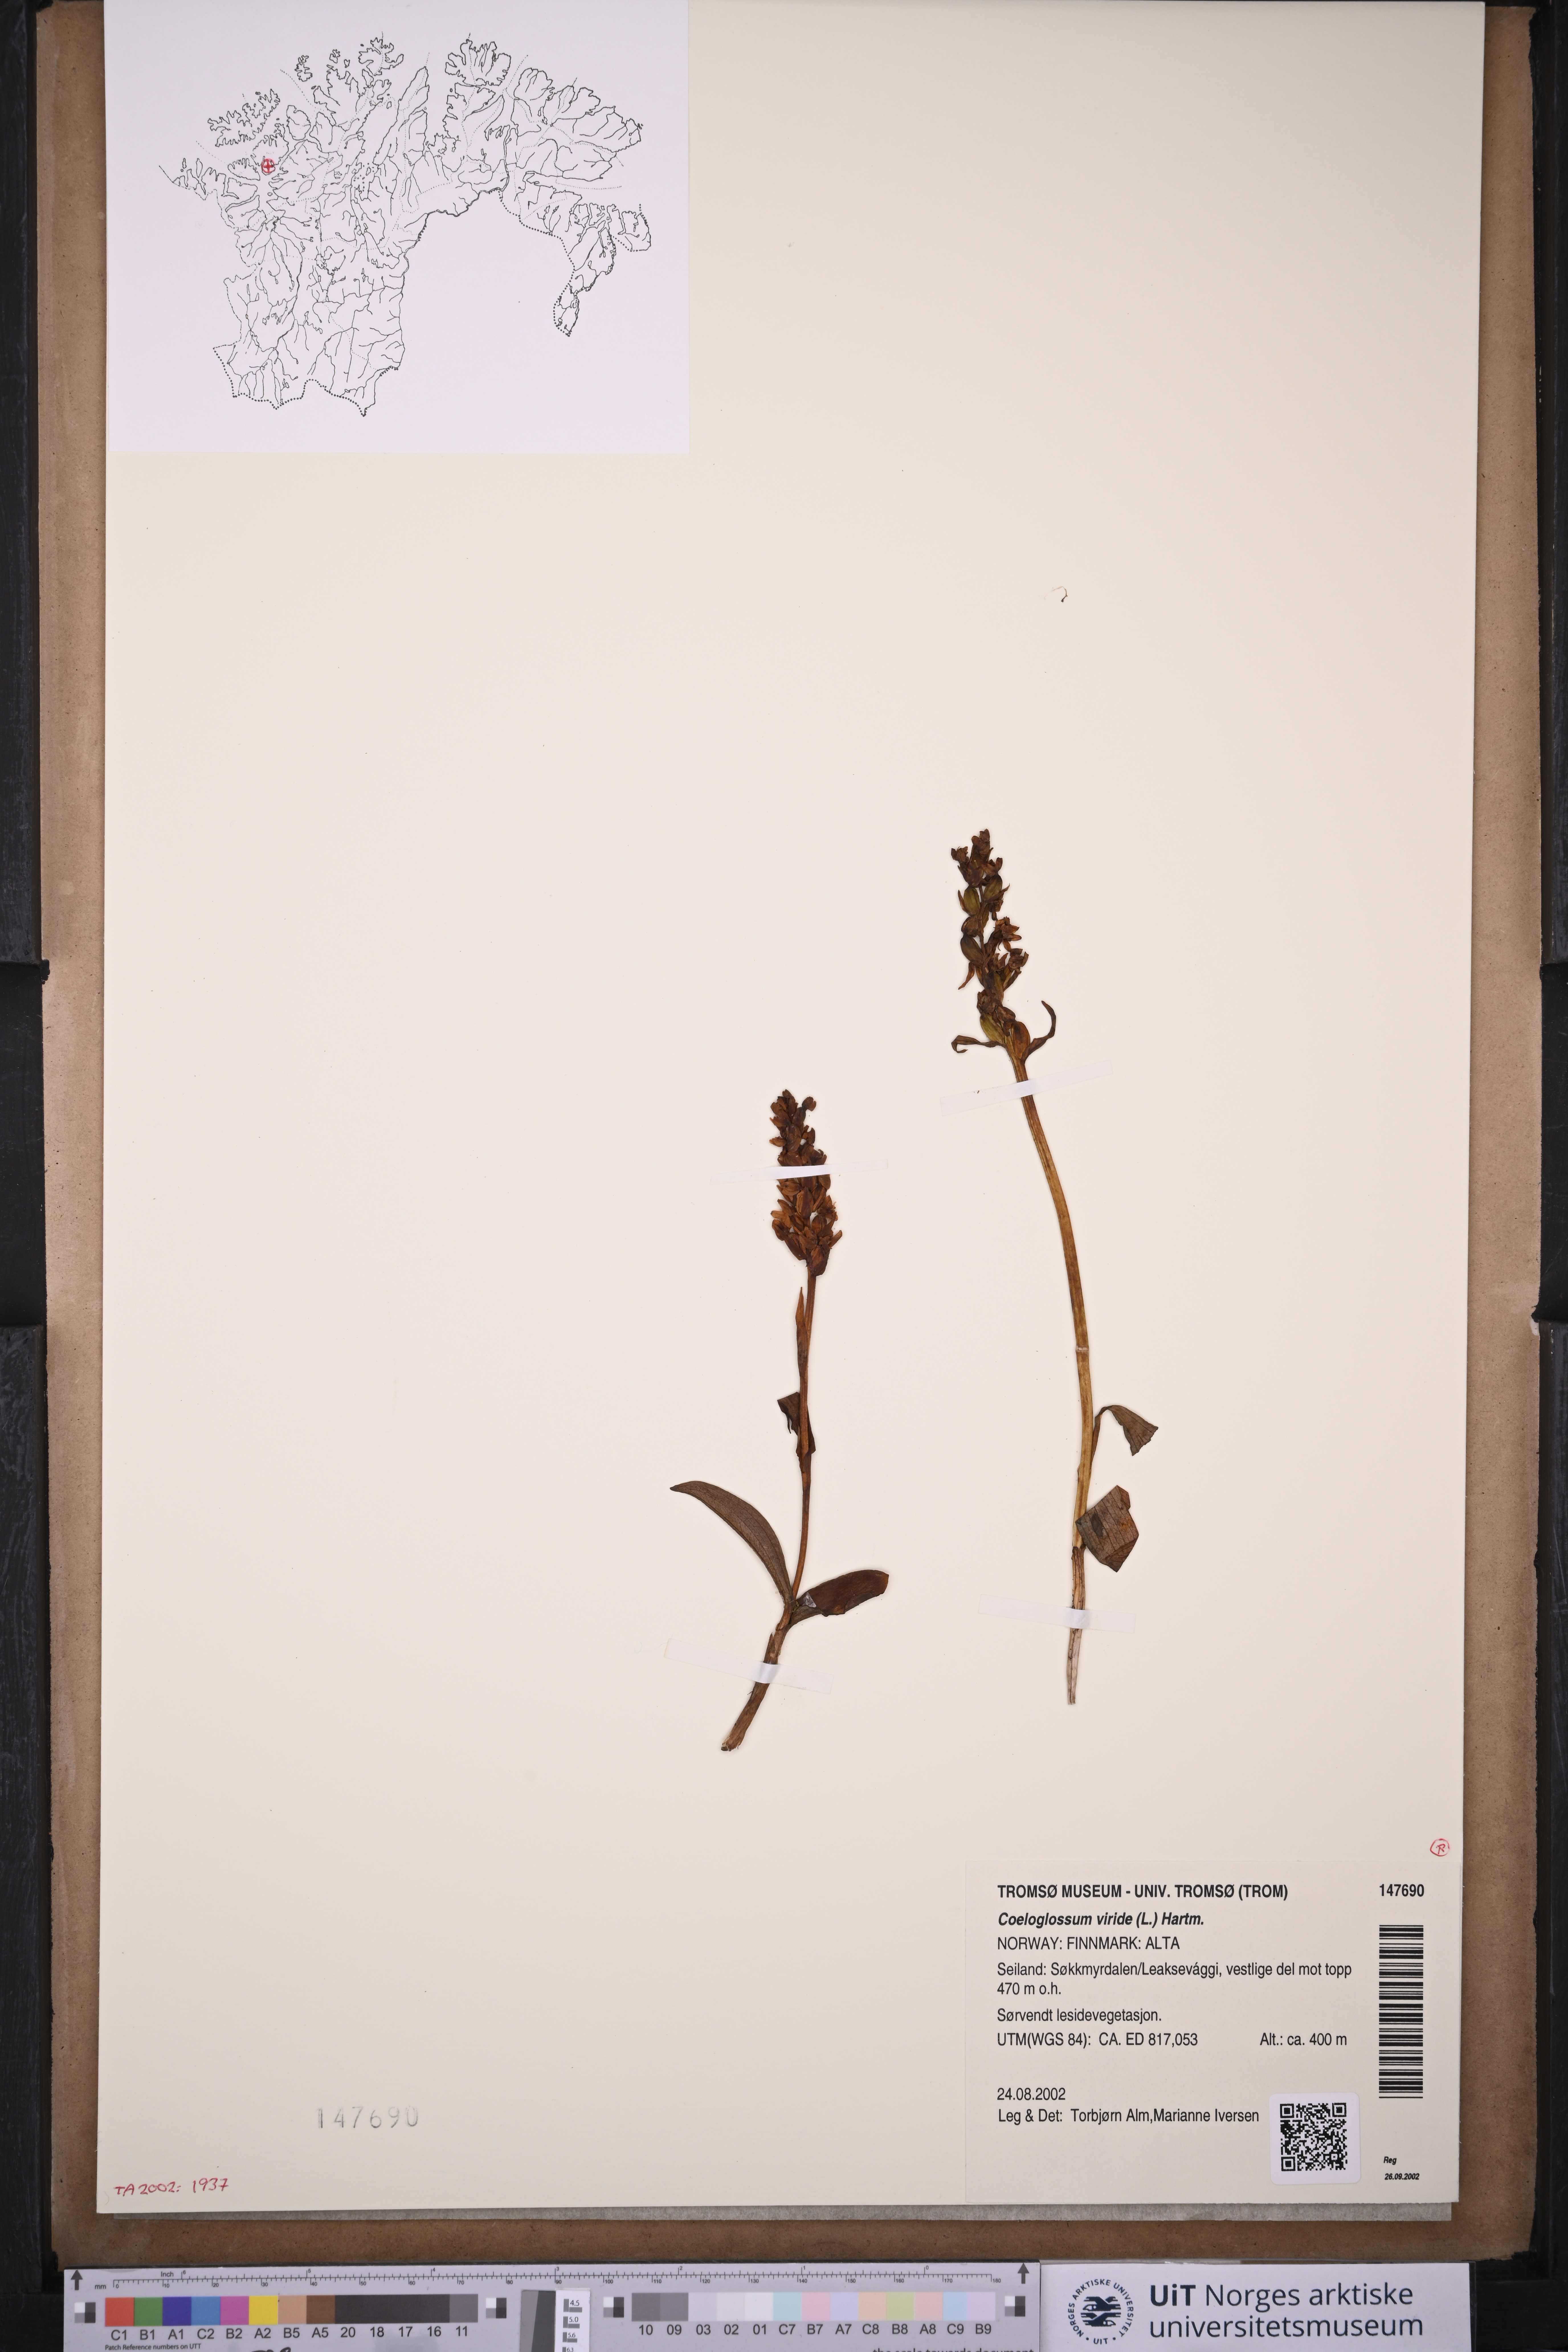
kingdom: Plantae
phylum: Tracheophyta
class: Liliopsida
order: Asparagales
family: Orchidaceae
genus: Dactylorhiza
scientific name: Dactylorhiza viridis
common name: Longbract frog orchid
